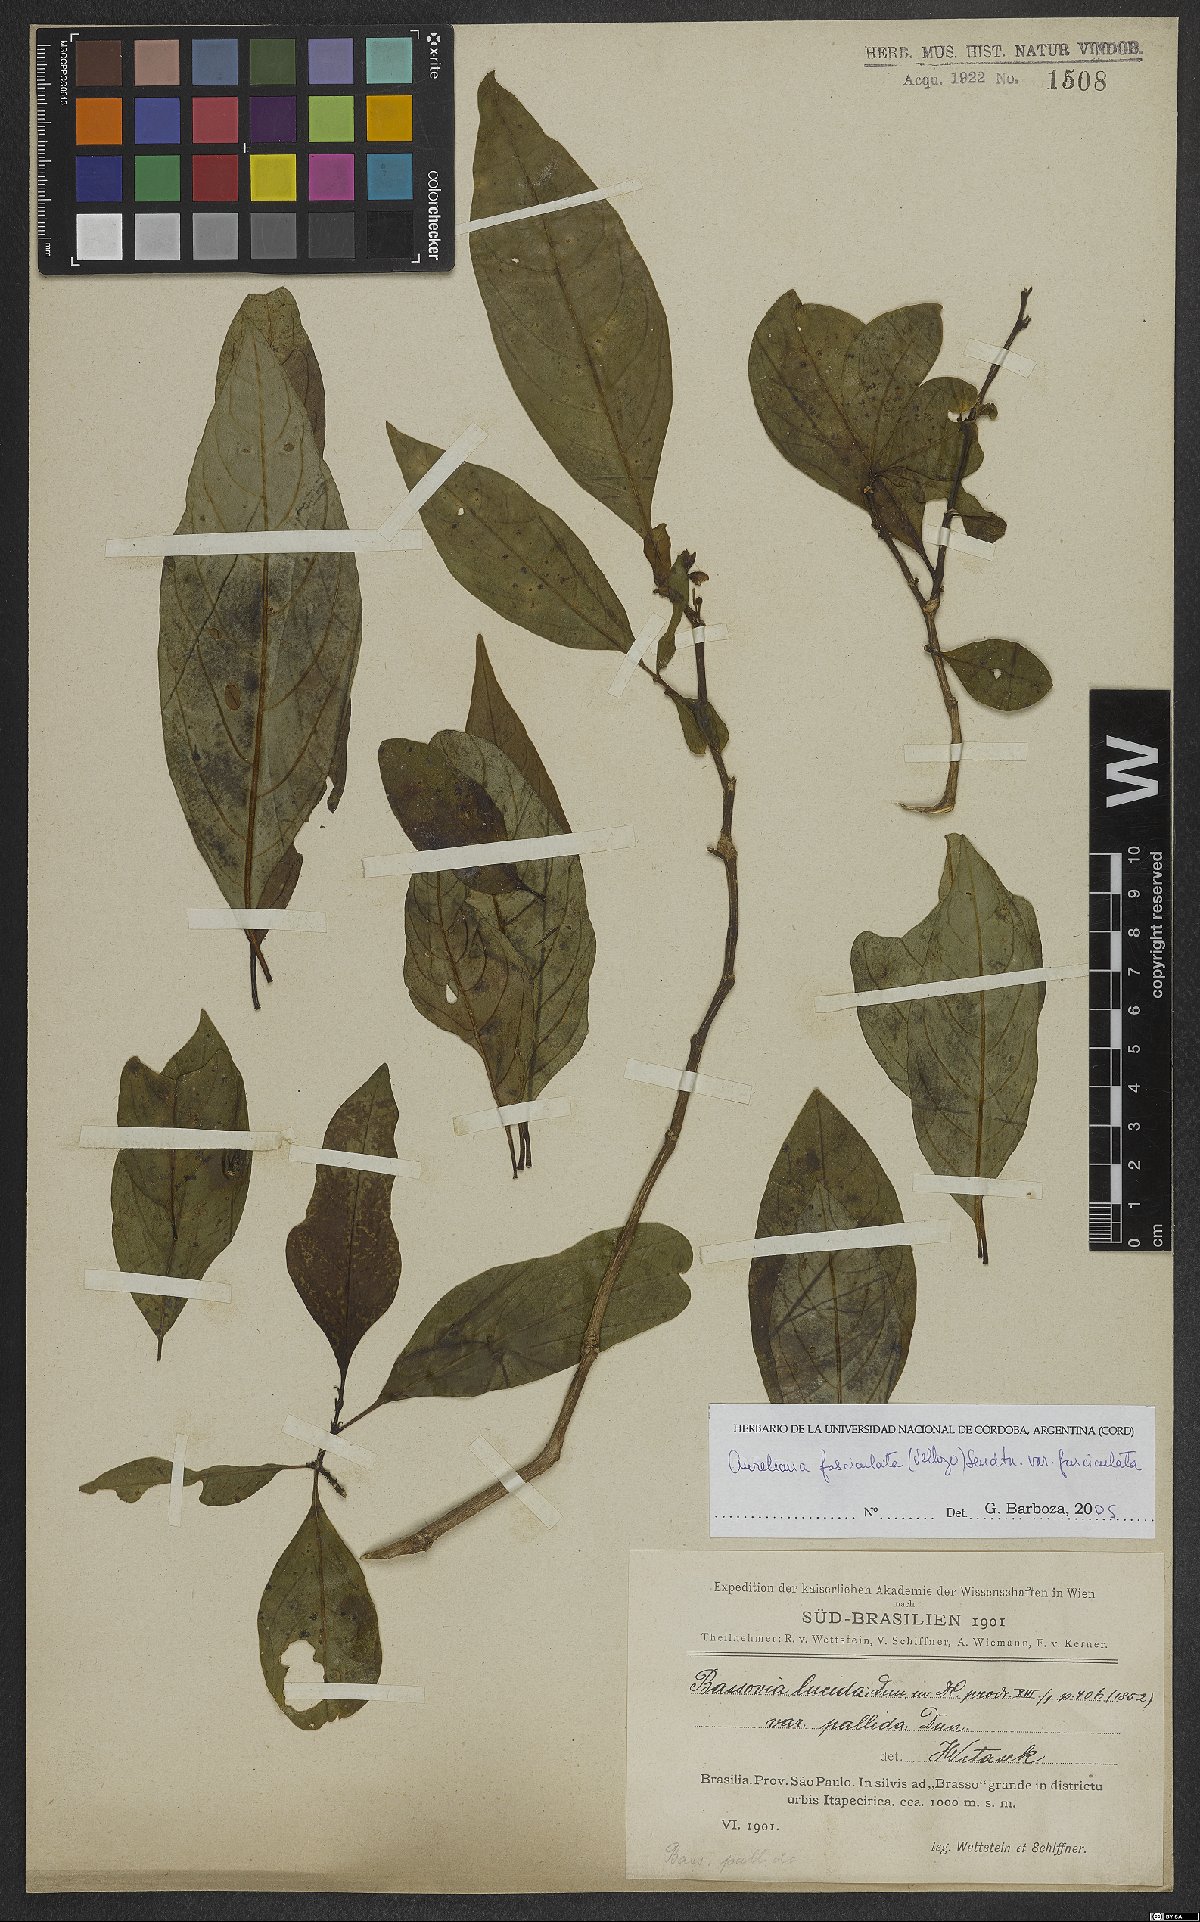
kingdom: Plantae
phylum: Tracheophyta
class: Magnoliopsida
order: Solanales
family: Solanaceae
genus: Athenaea
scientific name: Athenaea fasciculata
